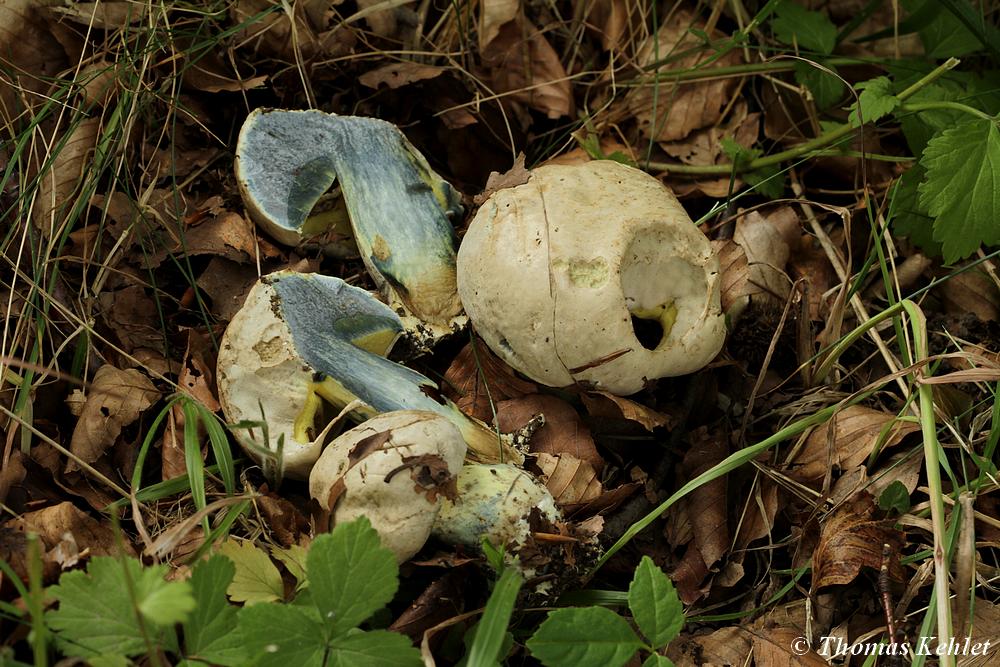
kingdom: Fungi
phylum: Basidiomycota
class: Agaricomycetes
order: Boletales
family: Boletaceae
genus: Caloboletus
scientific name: Caloboletus radicans
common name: rod-rørhat
